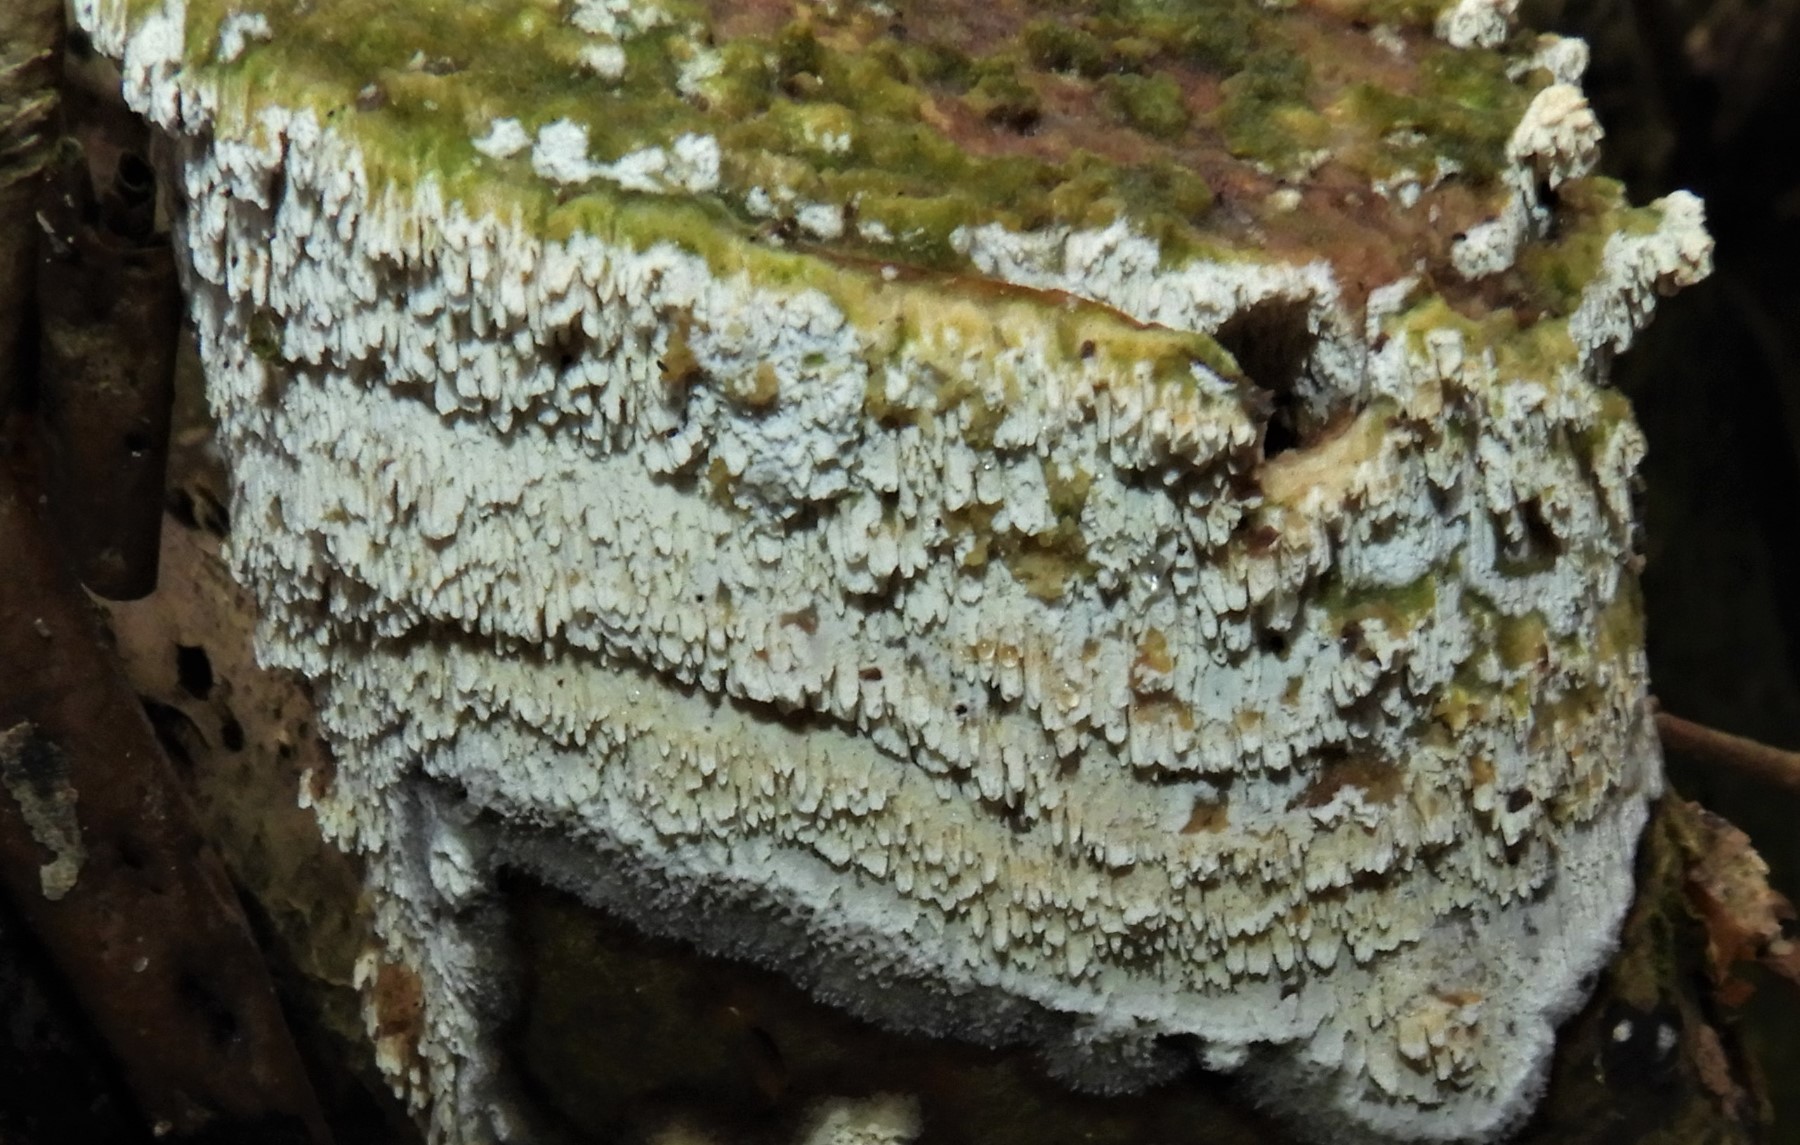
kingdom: Fungi
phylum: Basidiomycota
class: Agaricomycetes
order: Hymenochaetales
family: Schizoporaceae
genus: Schizopora
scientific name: Schizopora paradoxa
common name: hvid tandsvamp
